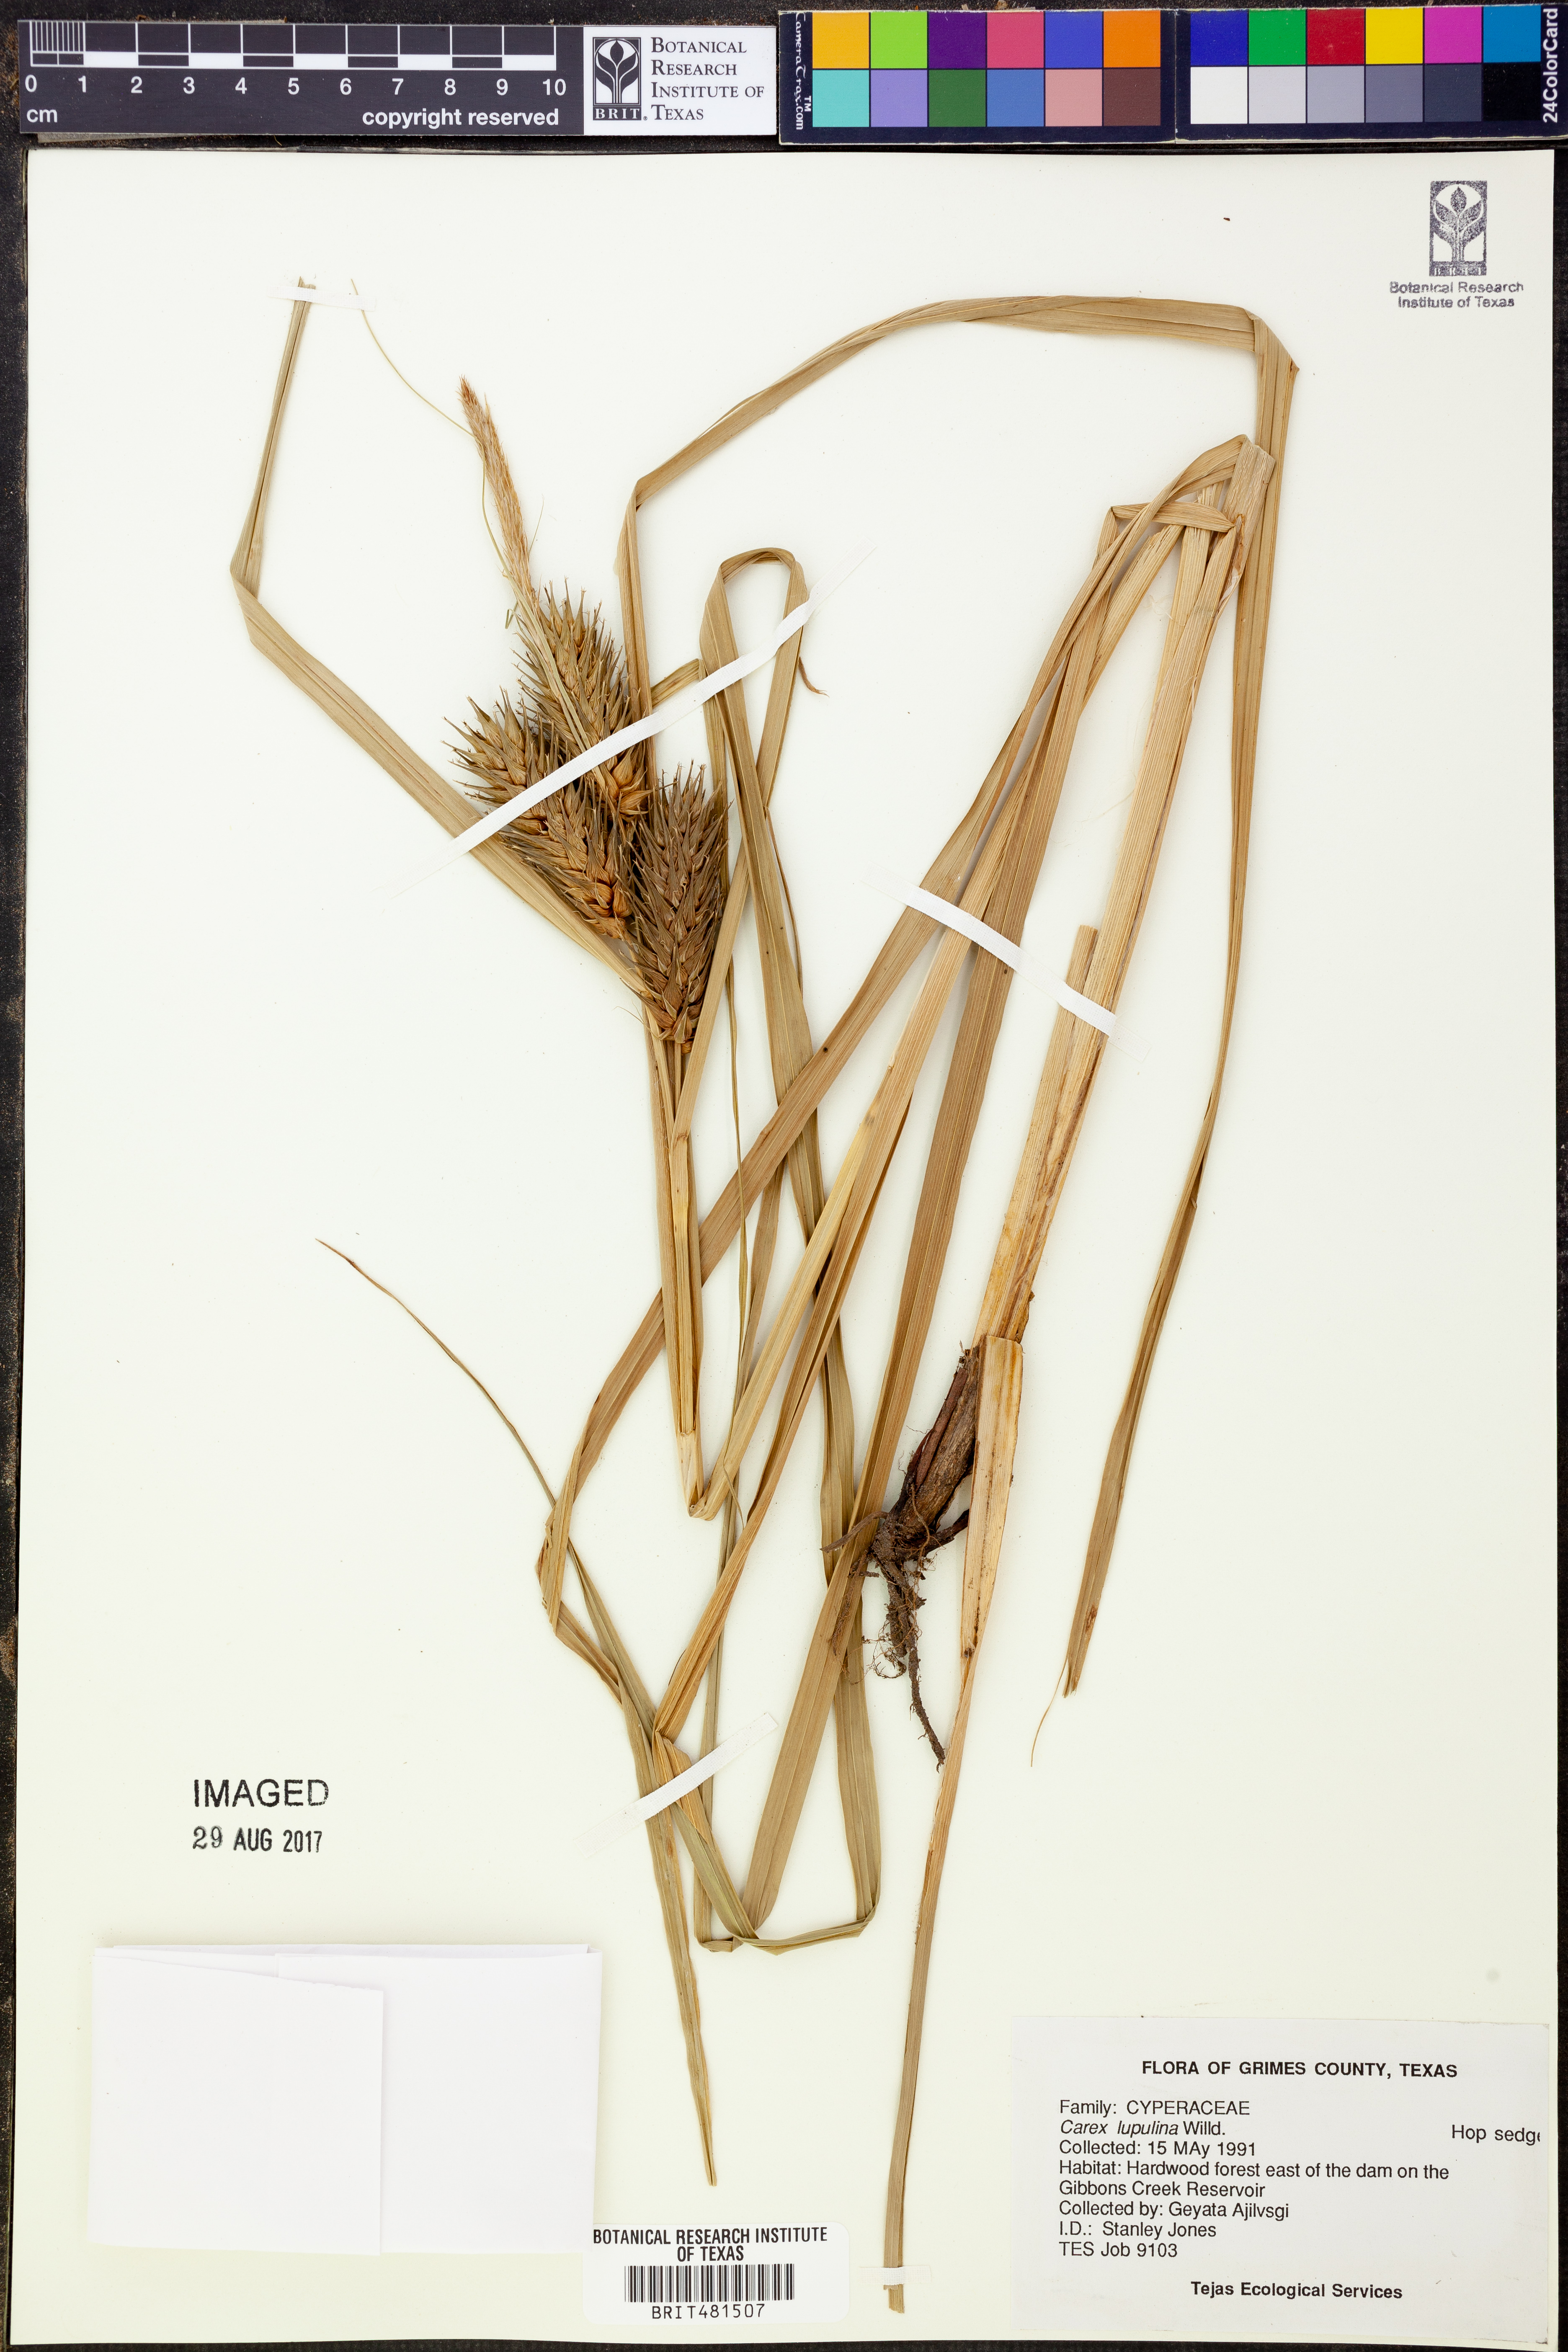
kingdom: Plantae
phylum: Tracheophyta
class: Liliopsida
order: Poales
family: Cyperaceae
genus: Carex
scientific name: Carex lupulina
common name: Hop sedge
